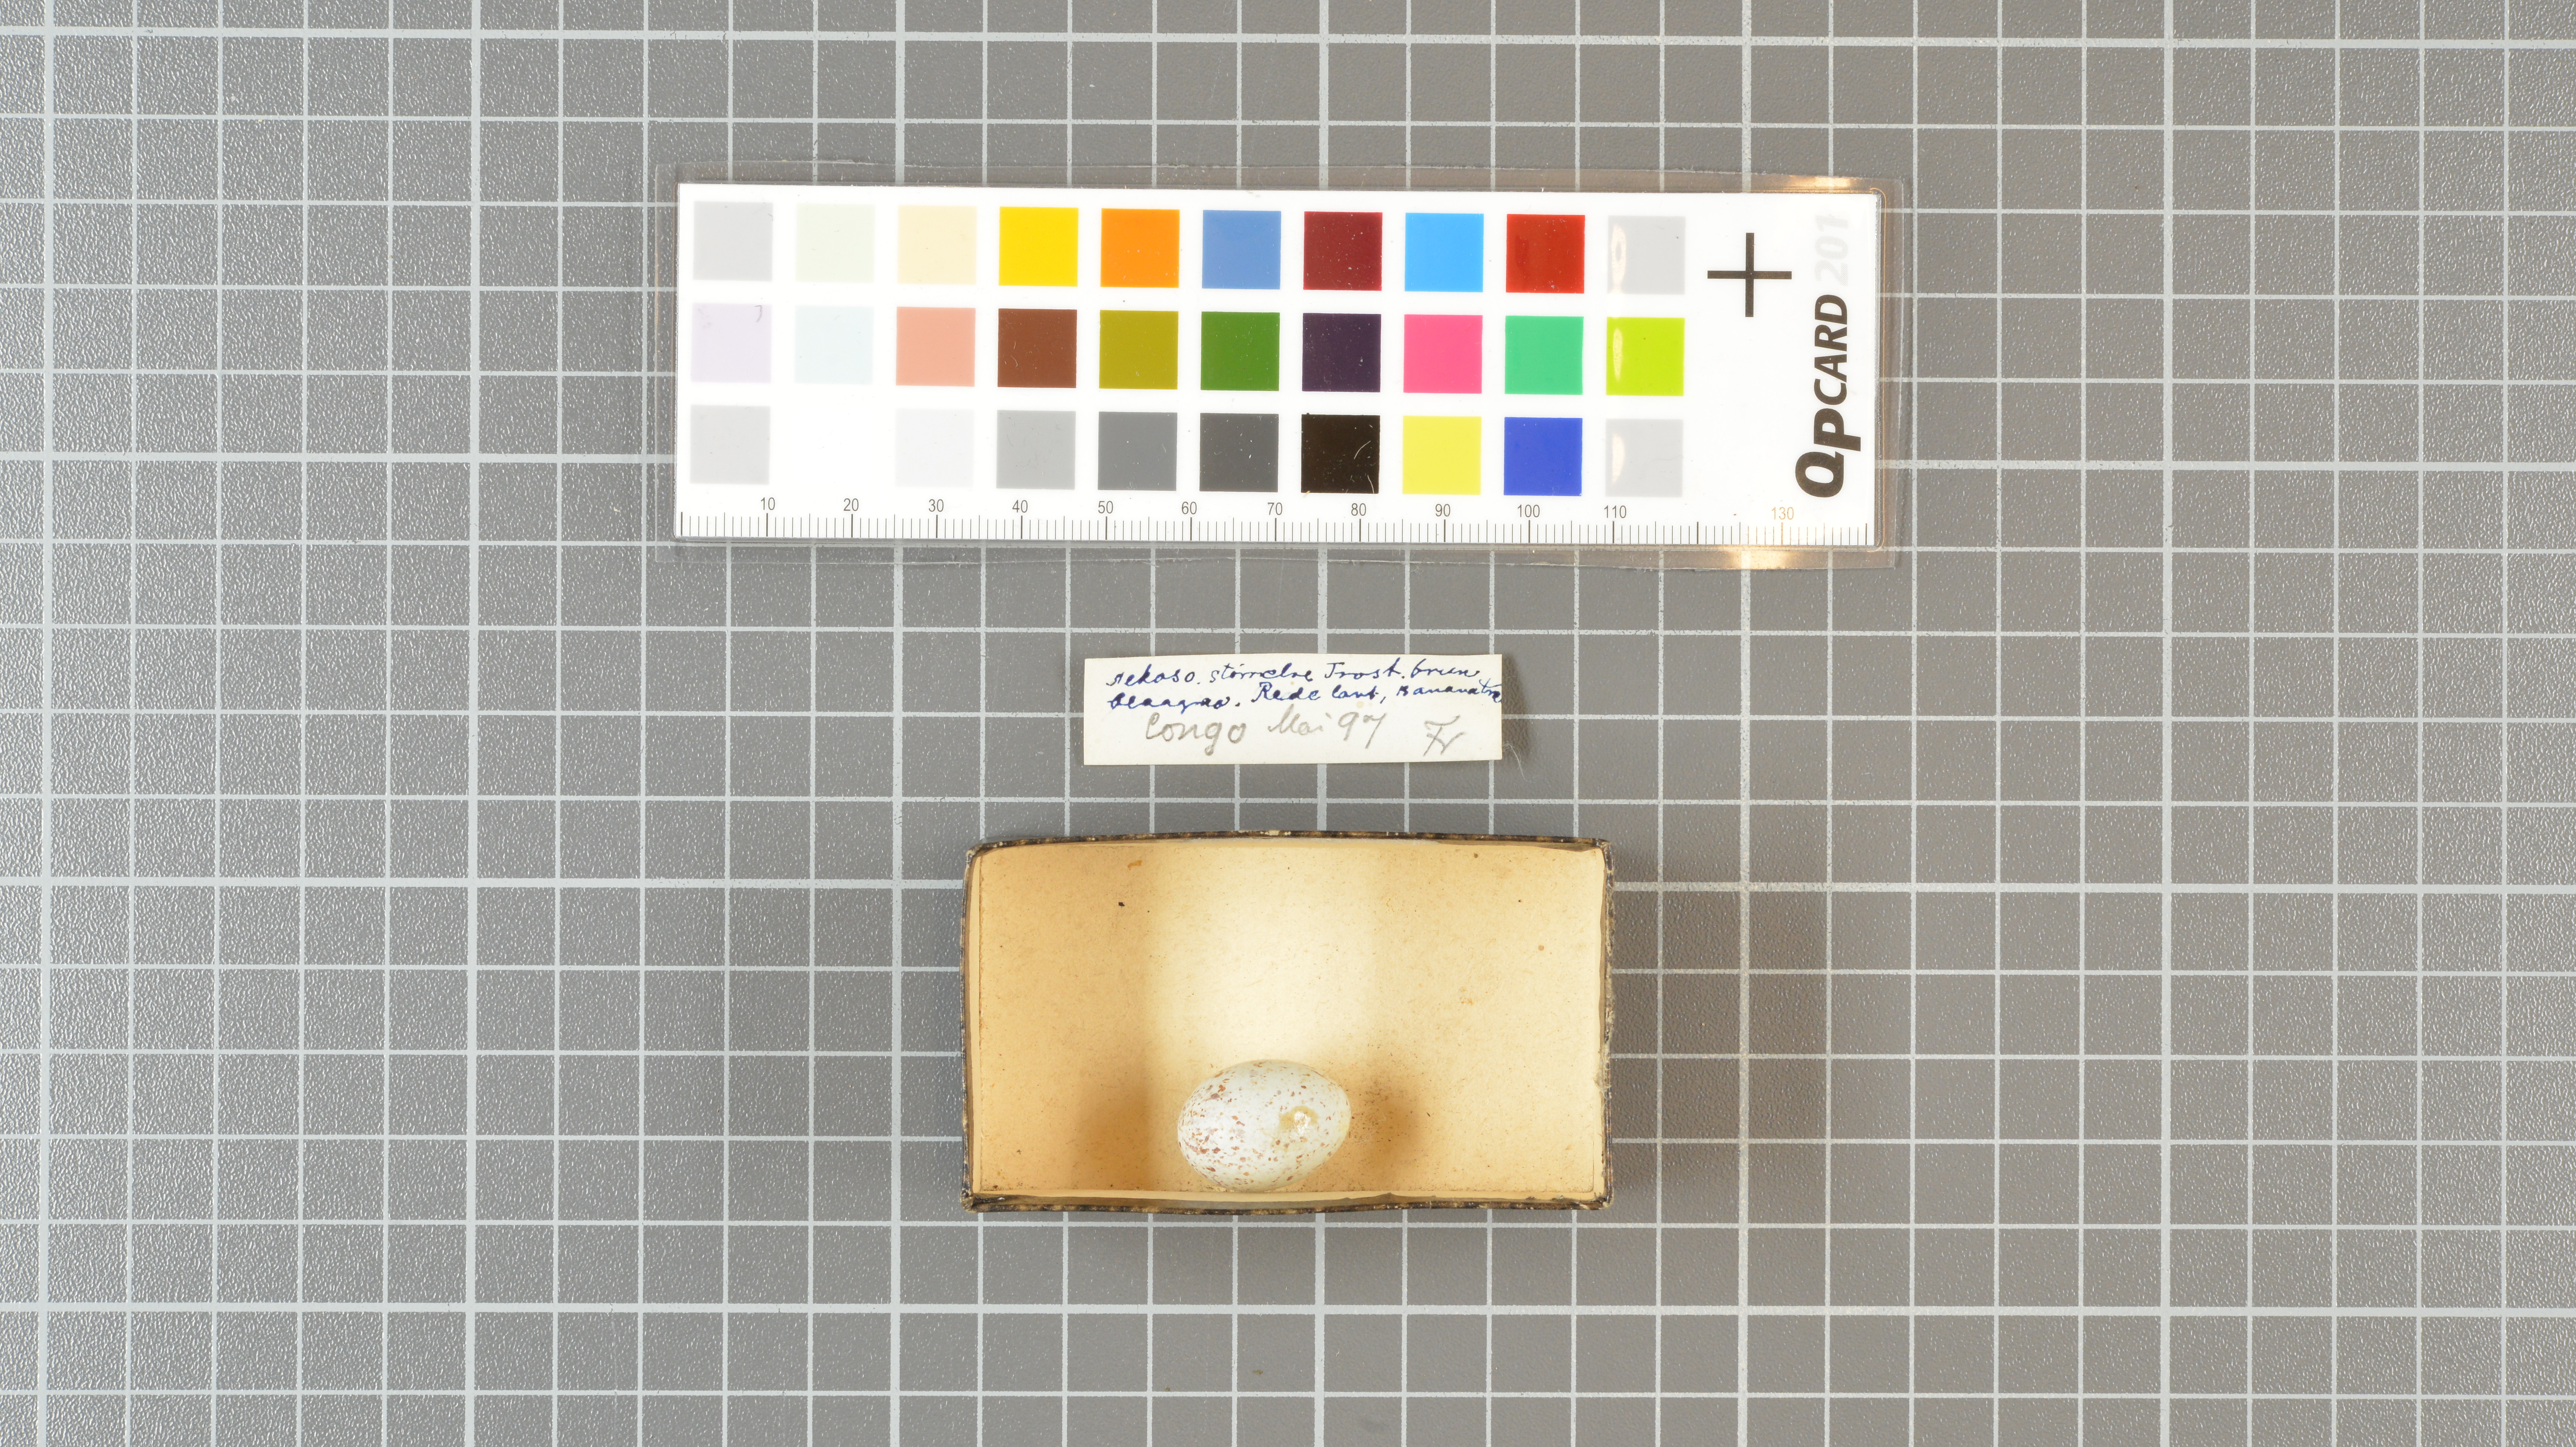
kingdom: Animalia
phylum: Chordata
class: Aves
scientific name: Aves
